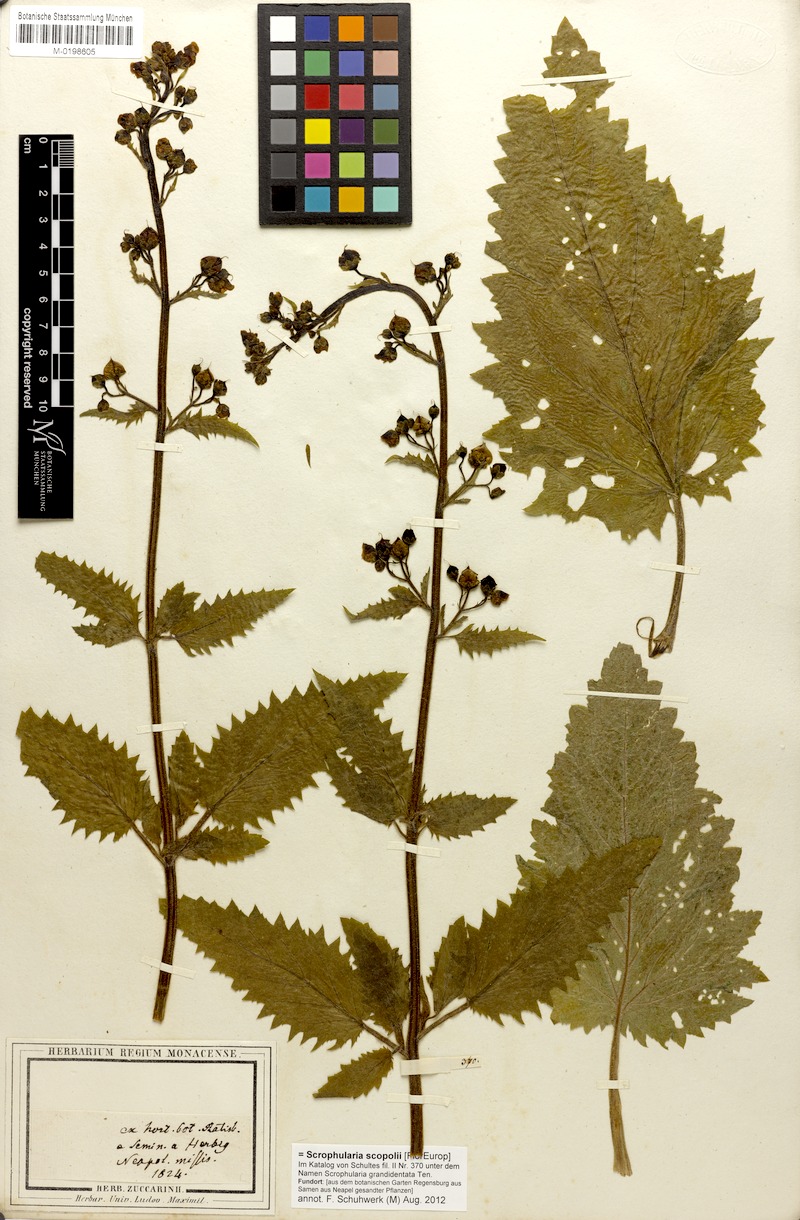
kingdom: Plantae
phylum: Tracheophyta
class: Magnoliopsida
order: Lamiales
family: Scrophulariaceae
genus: Scrophularia
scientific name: Scrophularia scopolii
